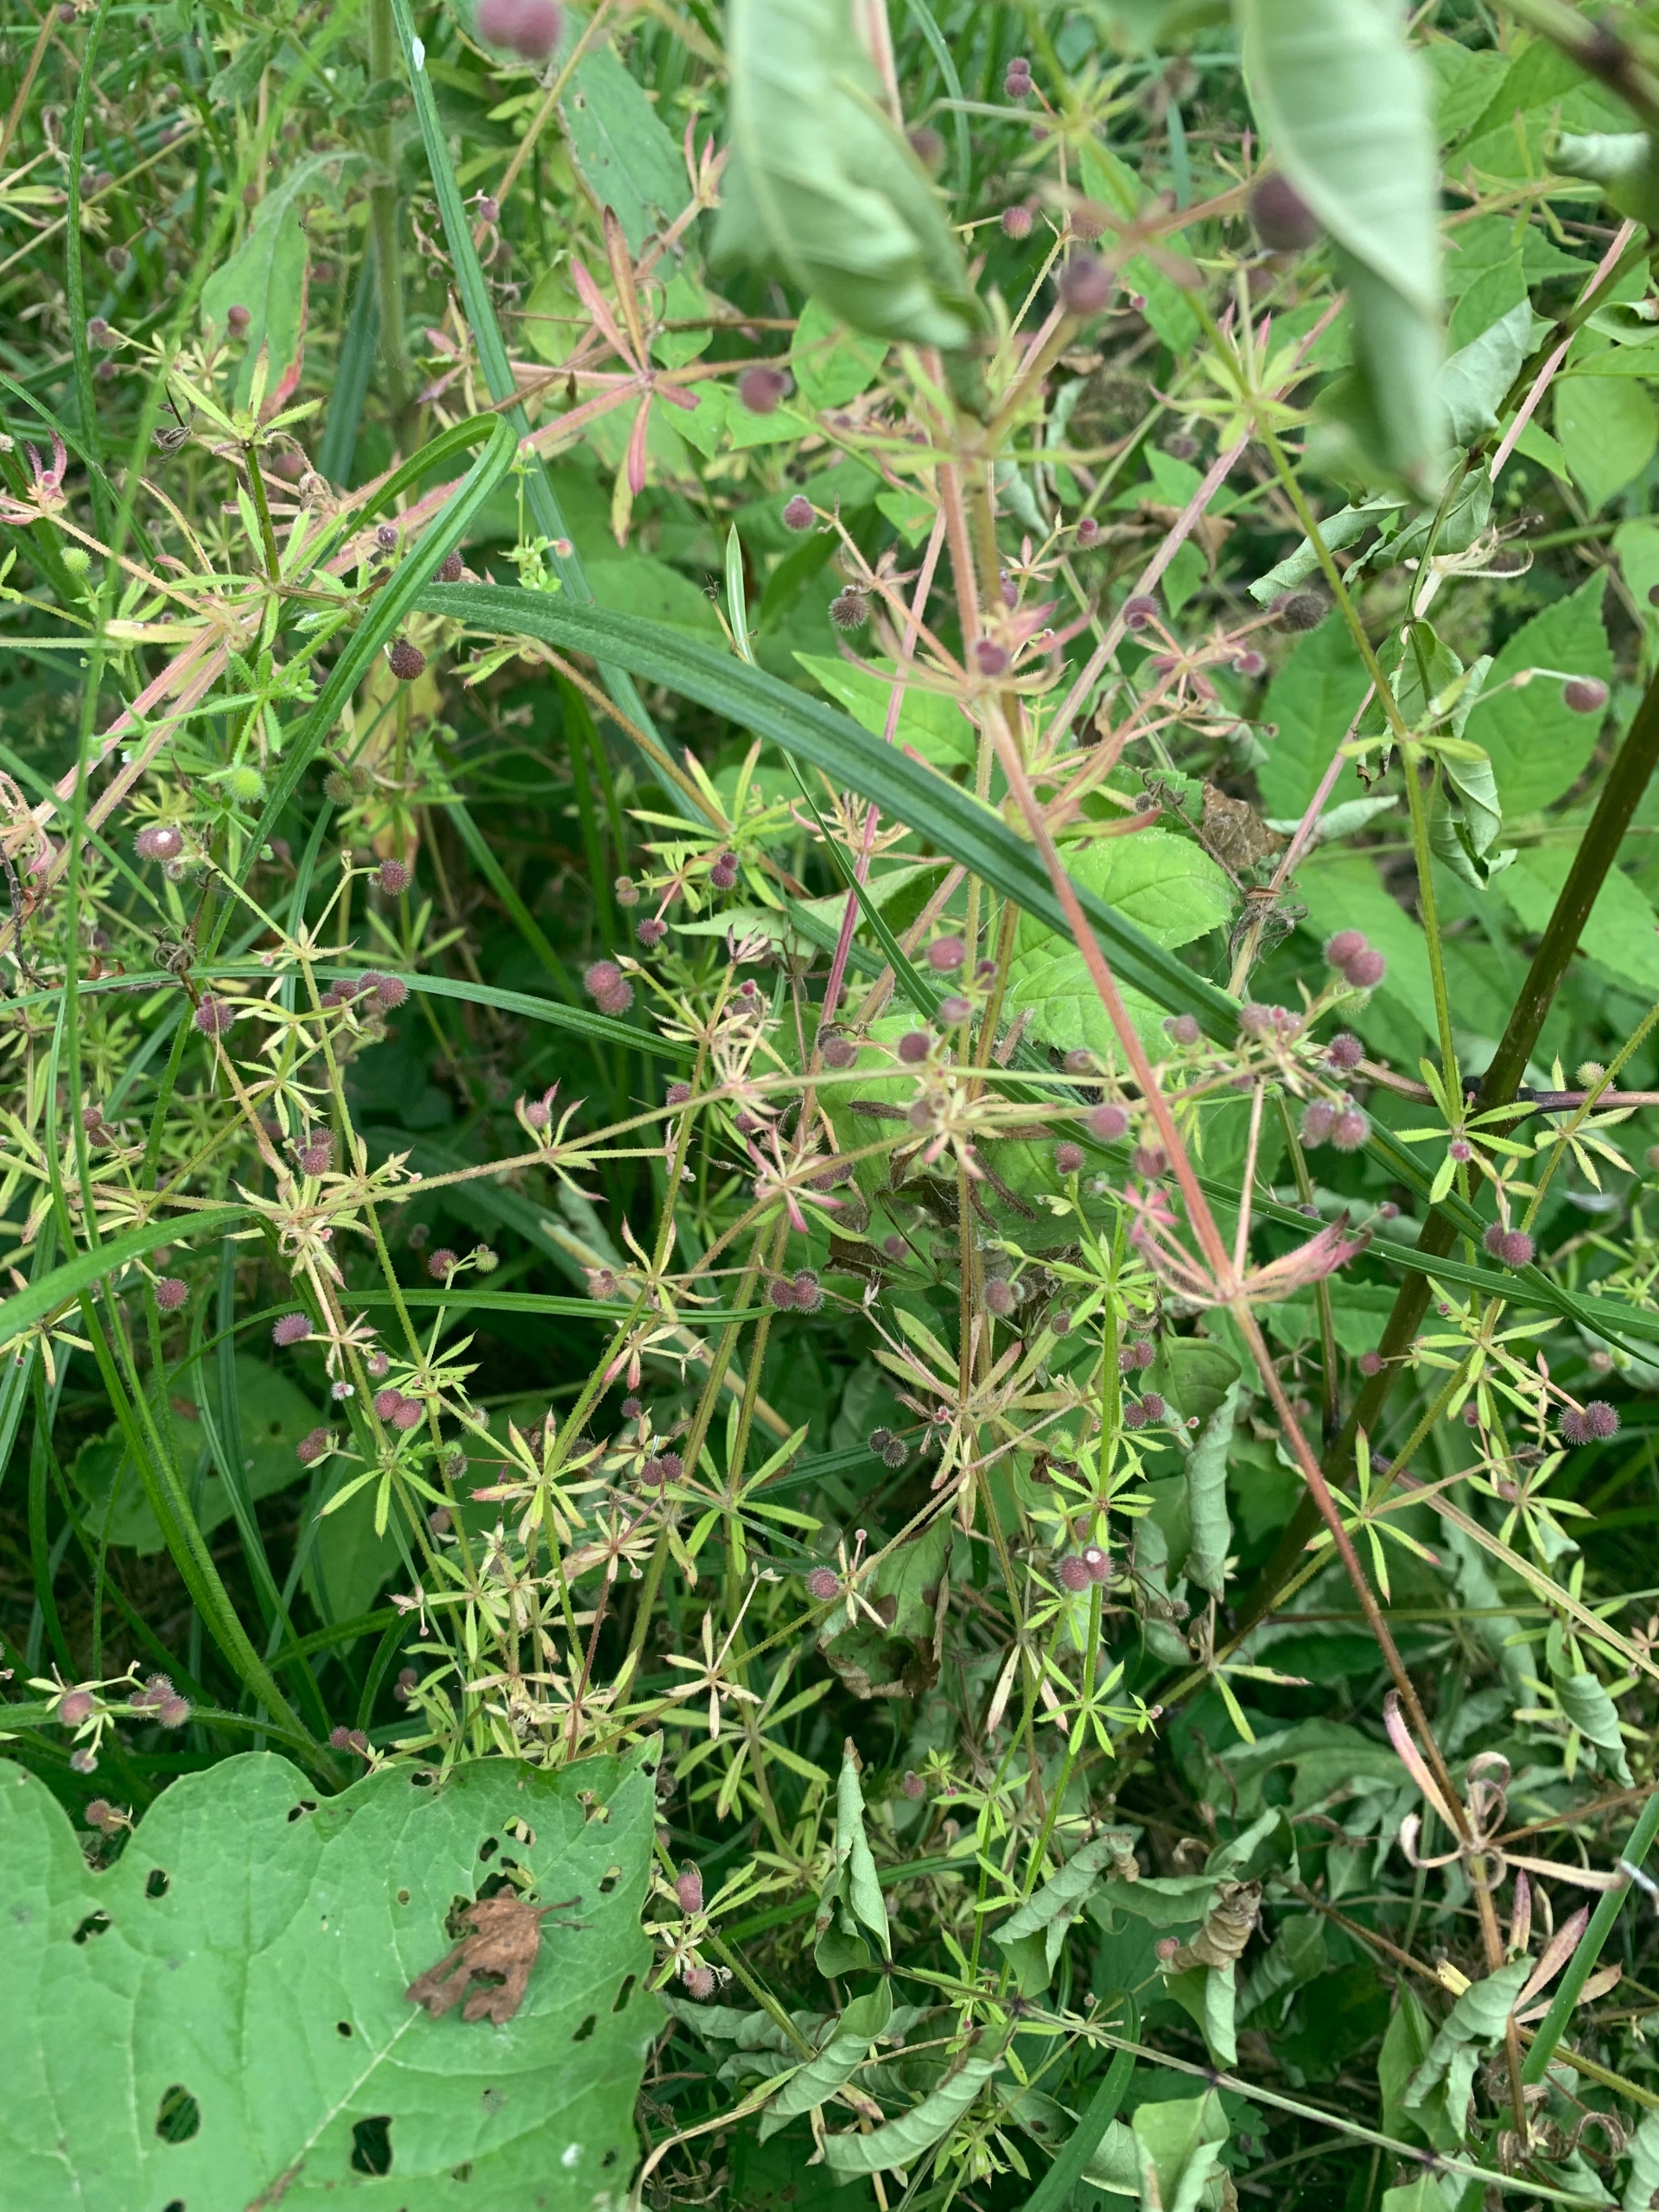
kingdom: Plantae
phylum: Tracheophyta
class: Magnoliopsida
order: Gentianales
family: Rubiaceae
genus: Galium
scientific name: Galium aparine
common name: Burre-snerre
